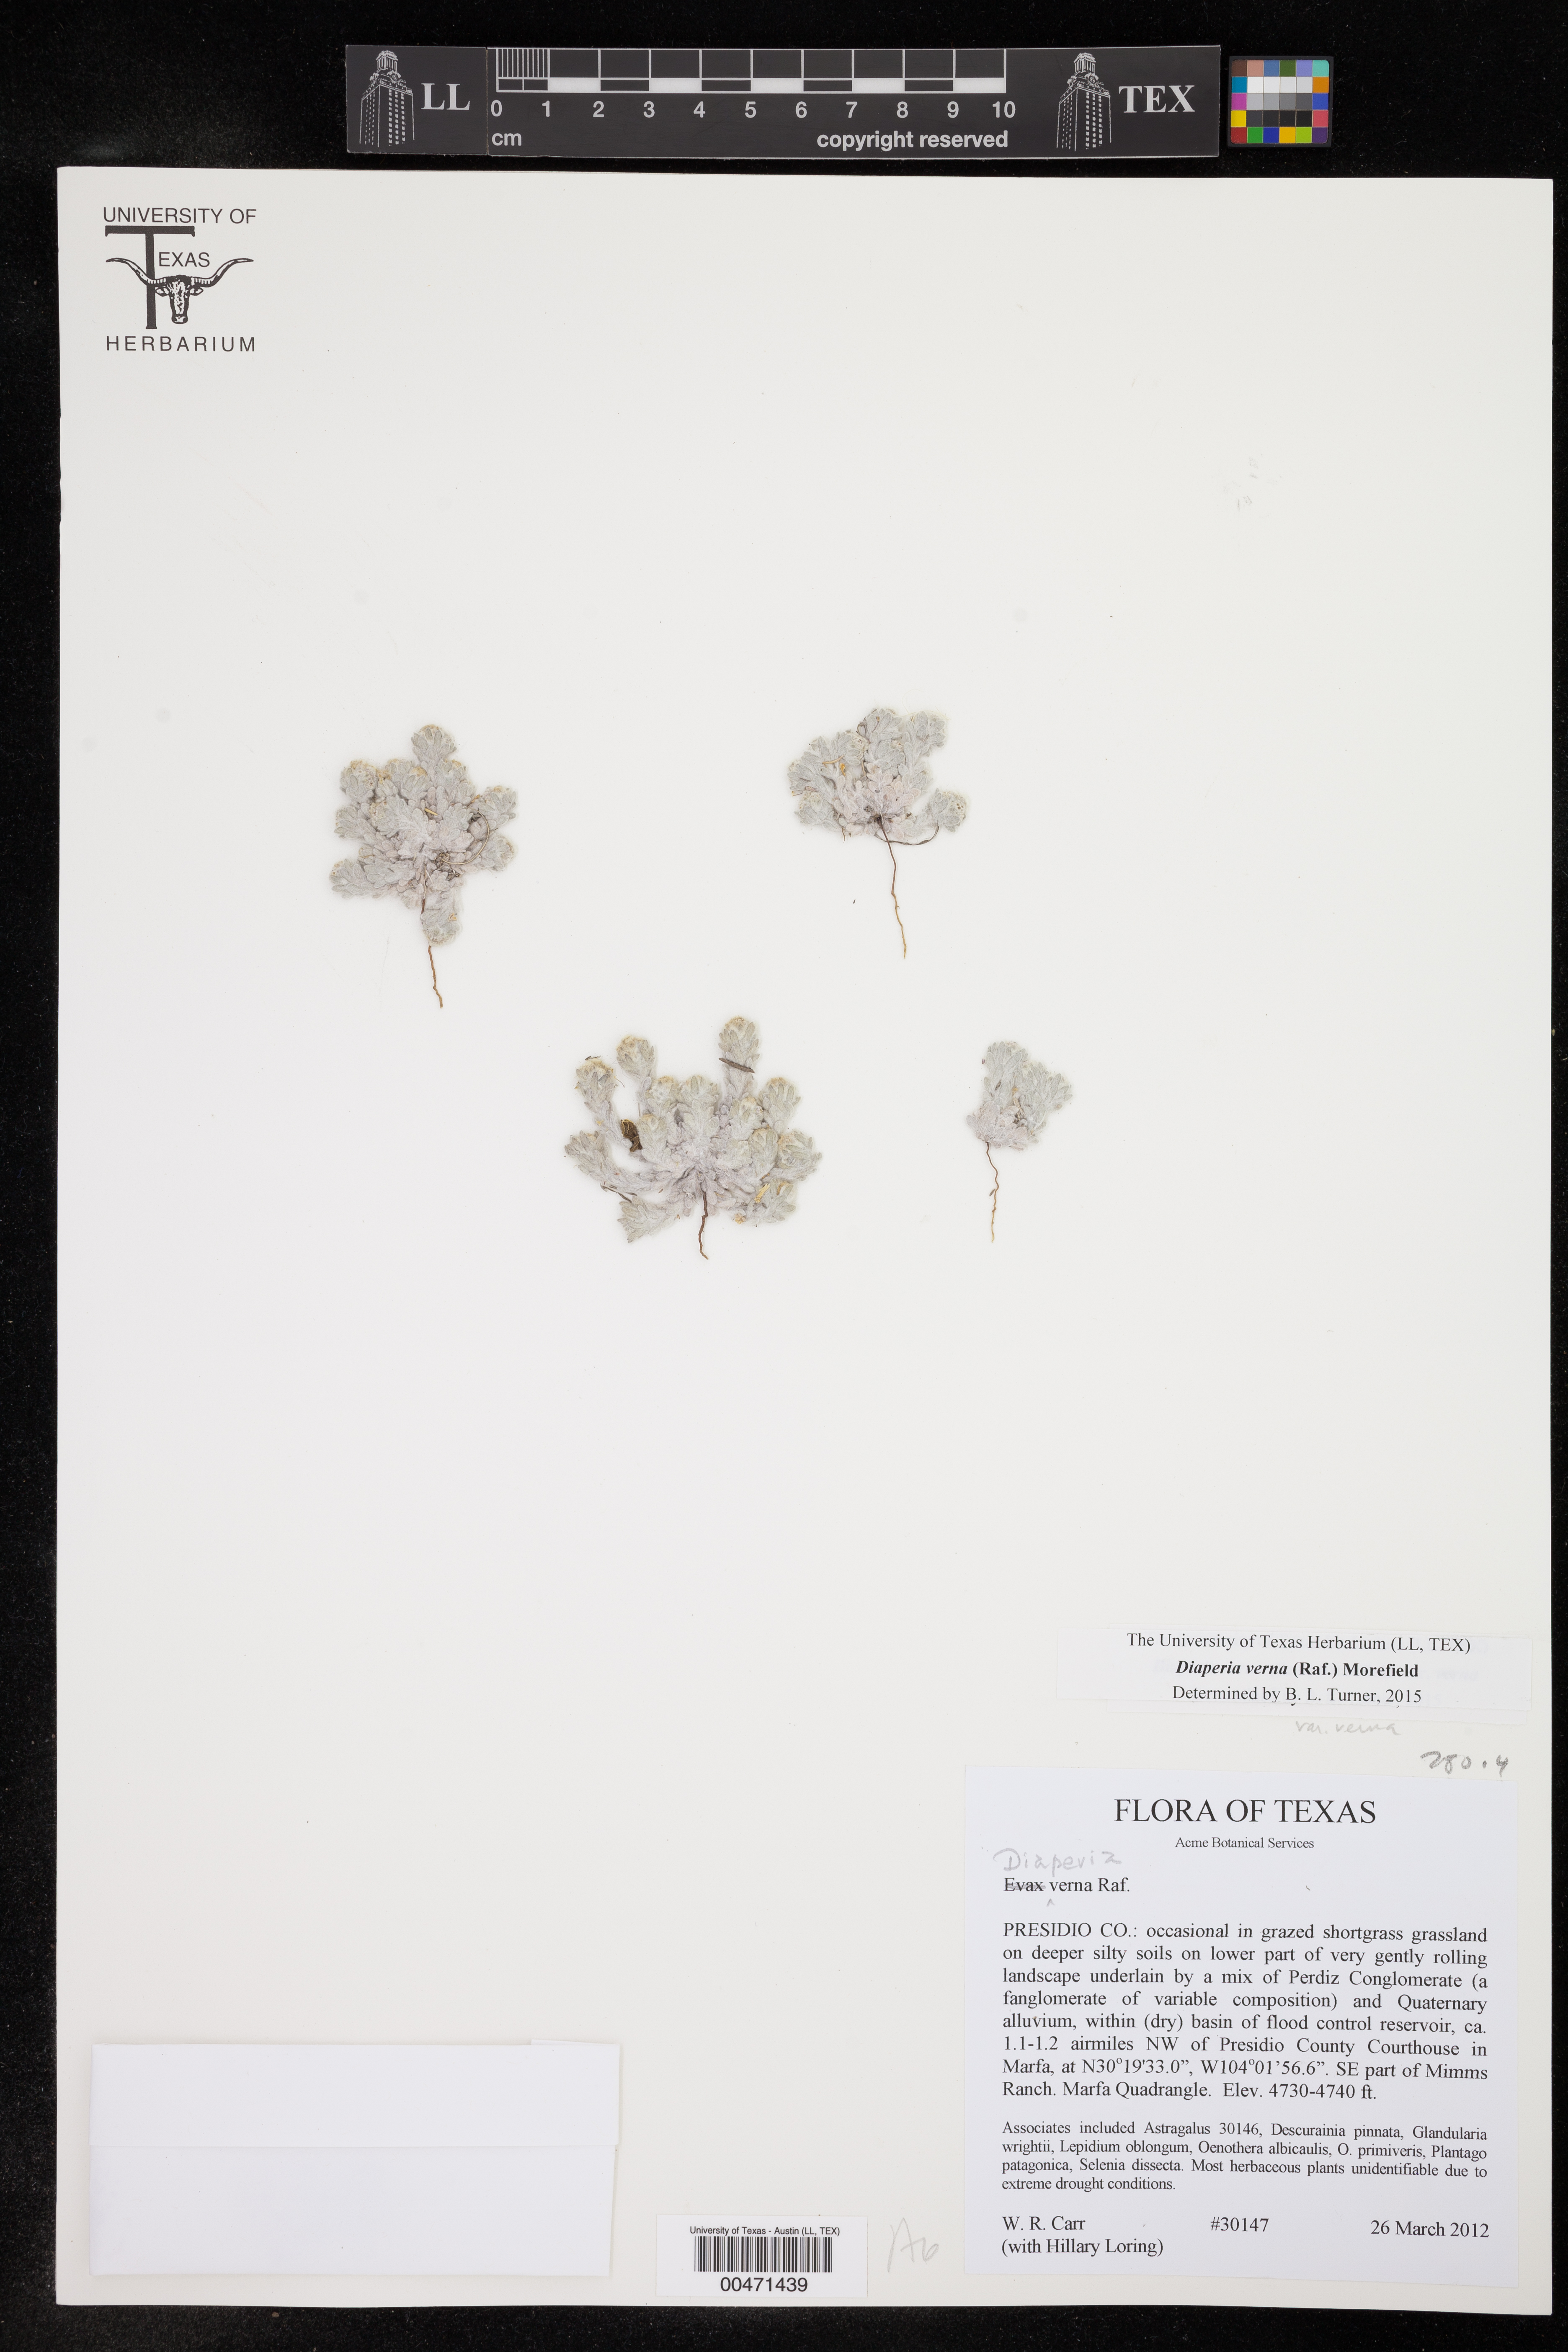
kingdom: Plantae
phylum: Tracheophyta
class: Magnoliopsida
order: Asterales
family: Asteraceae
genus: Diaperia
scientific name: Diaperia verna
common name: Many-stem rabbit-tobacco
